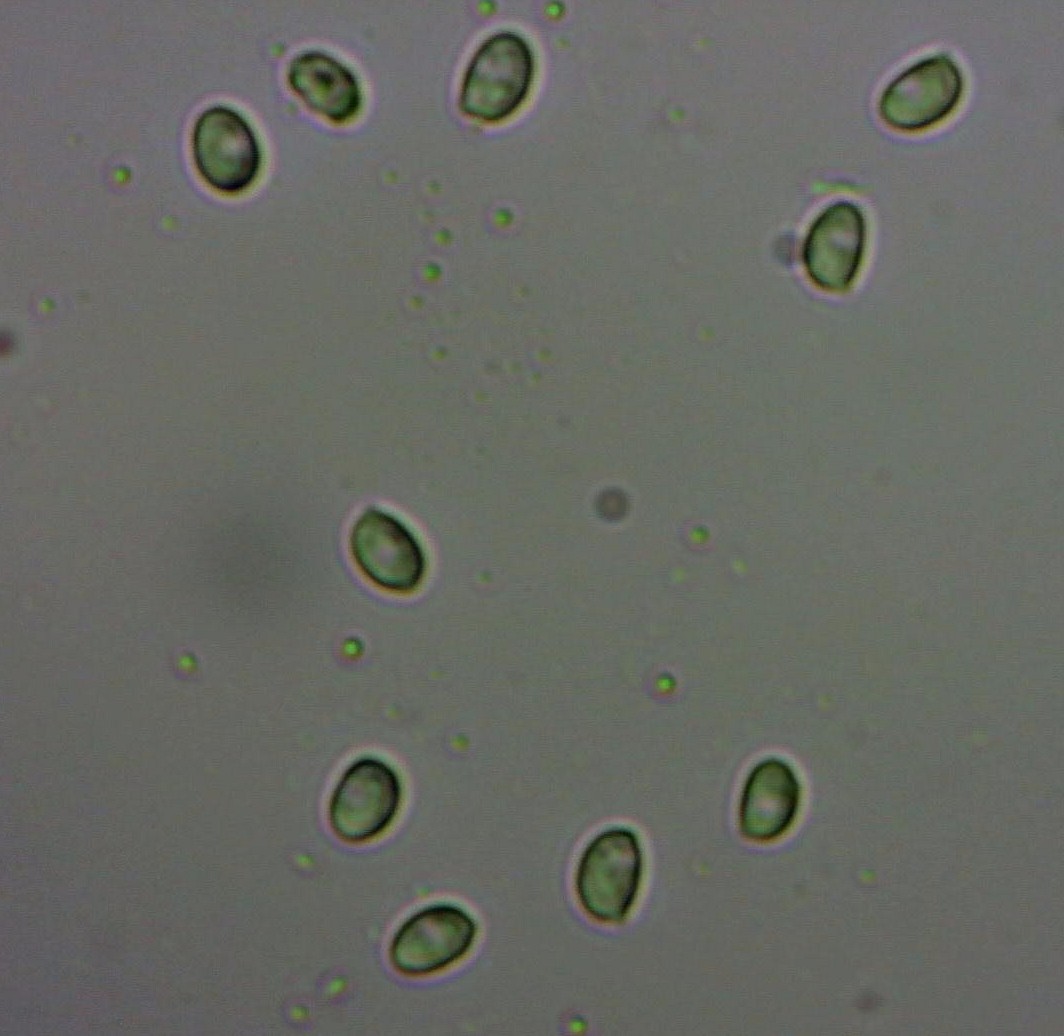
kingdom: Fungi
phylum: Basidiomycota
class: Agaricomycetes
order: Agaricales
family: Tricholomataceae
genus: Aspropaxillus
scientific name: Aspropaxillus giganteus
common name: kæmpe-tragtridderhat
